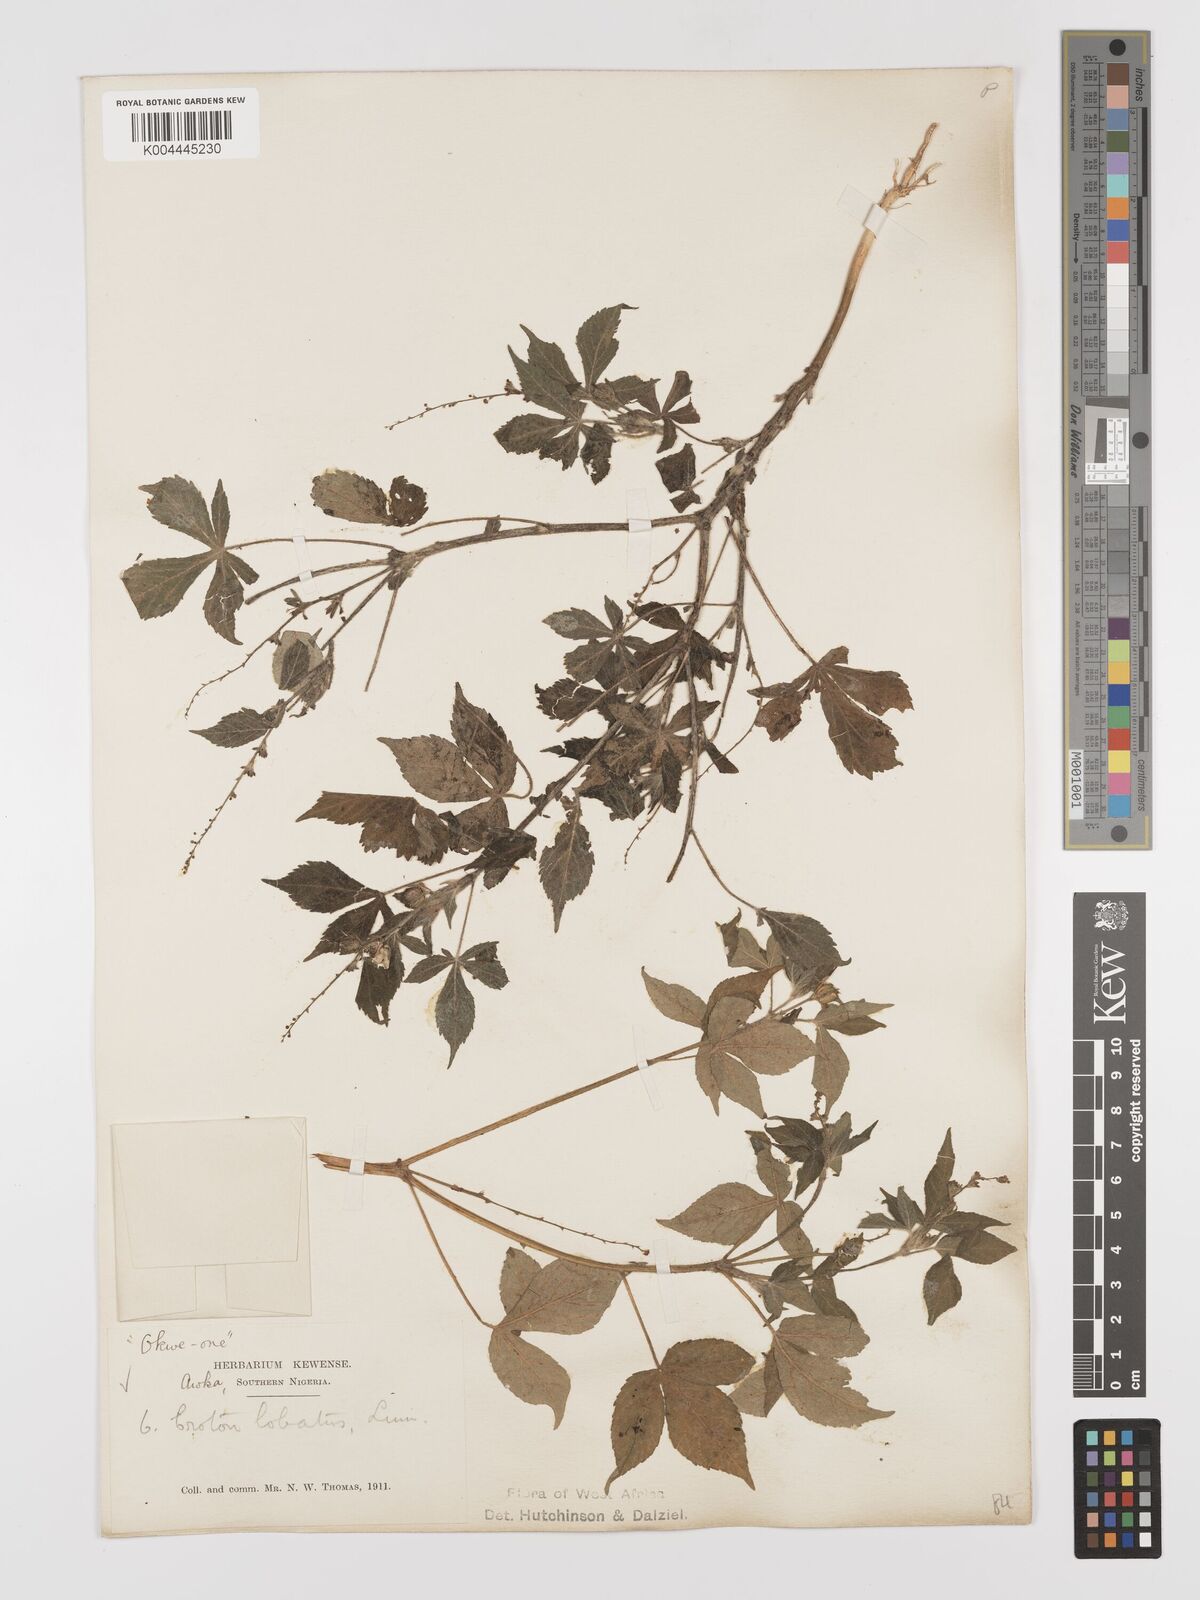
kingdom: Plantae
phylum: Tracheophyta
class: Magnoliopsida
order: Malpighiales
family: Euphorbiaceae
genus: Astraea
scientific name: Astraea lobata
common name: Lobed croton
